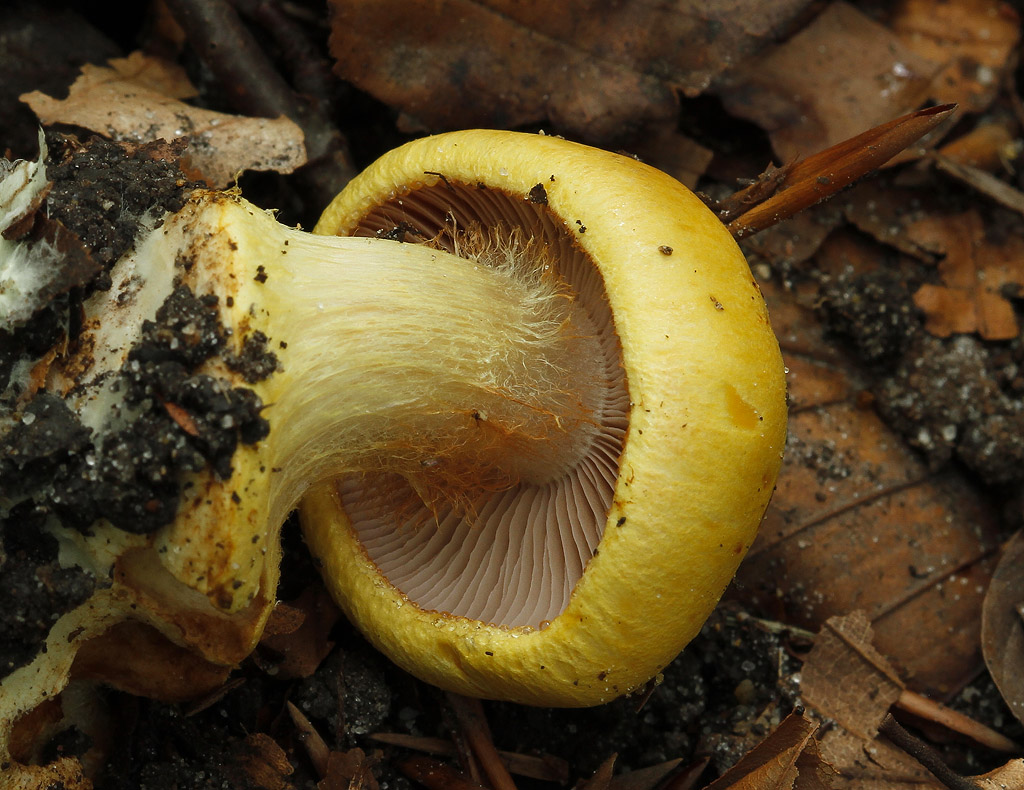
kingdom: Fungi
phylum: Basidiomycota
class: Agaricomycetes
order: Agaricales
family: Cortinariaceae
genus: Calonarius
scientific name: Calonarius callochrous
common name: lillabladet slørhat
